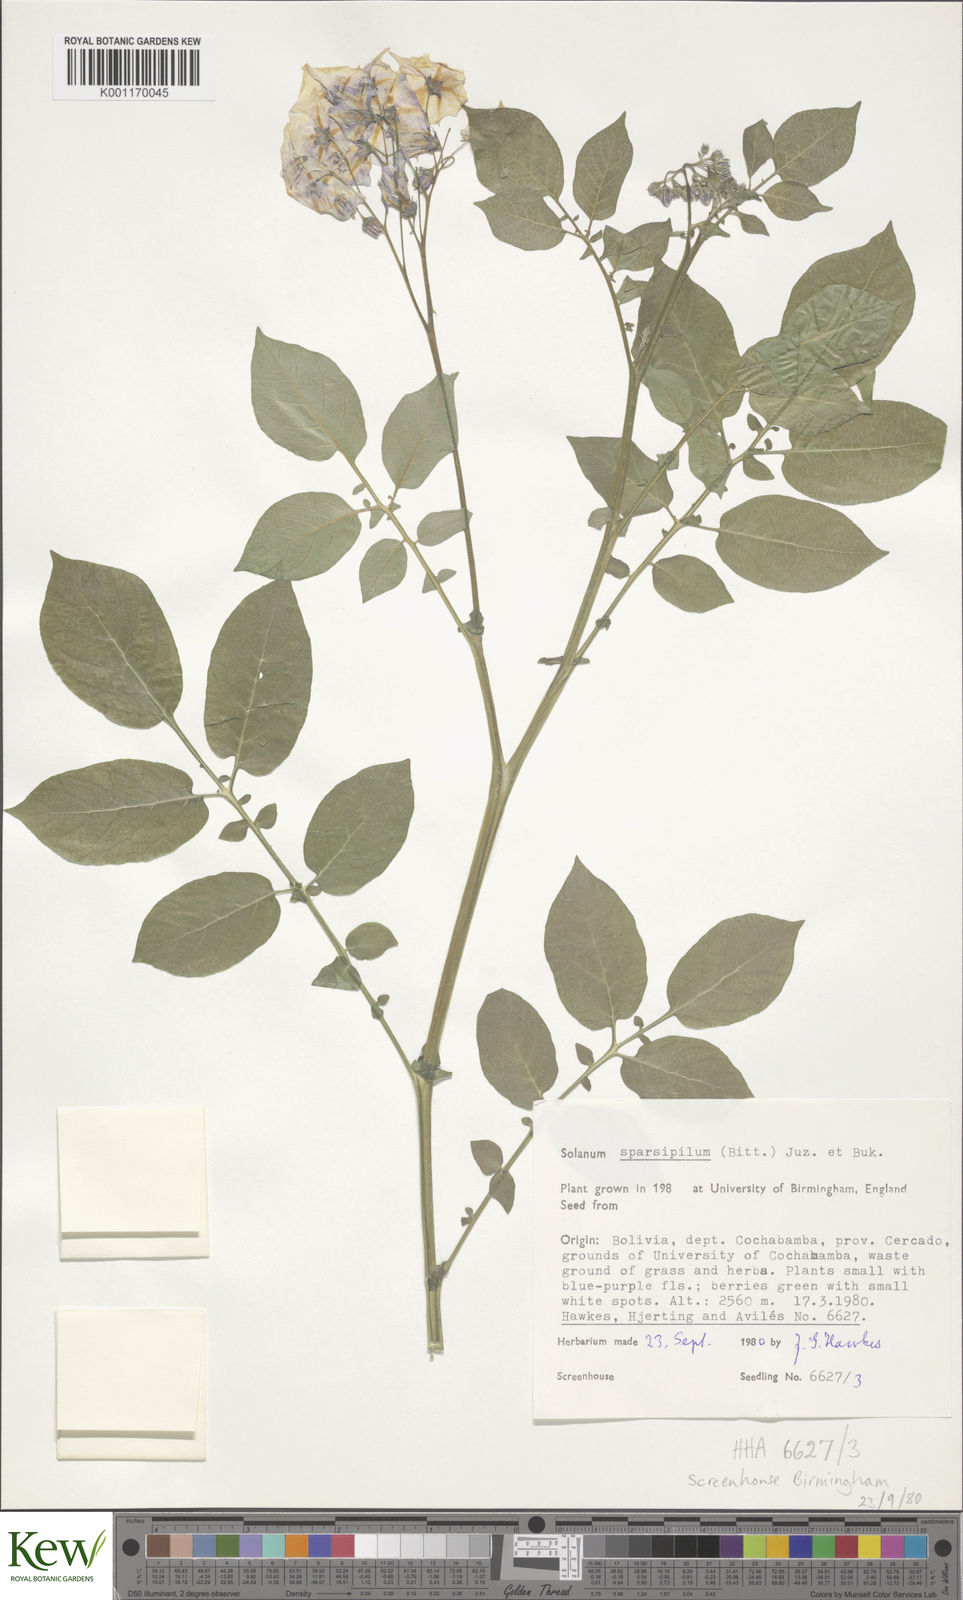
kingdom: Plantae
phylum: Tracheophyta
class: Magnoliopsida
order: Solanales
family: Solanaceae
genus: Solanum
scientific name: Solanum brevicaule
